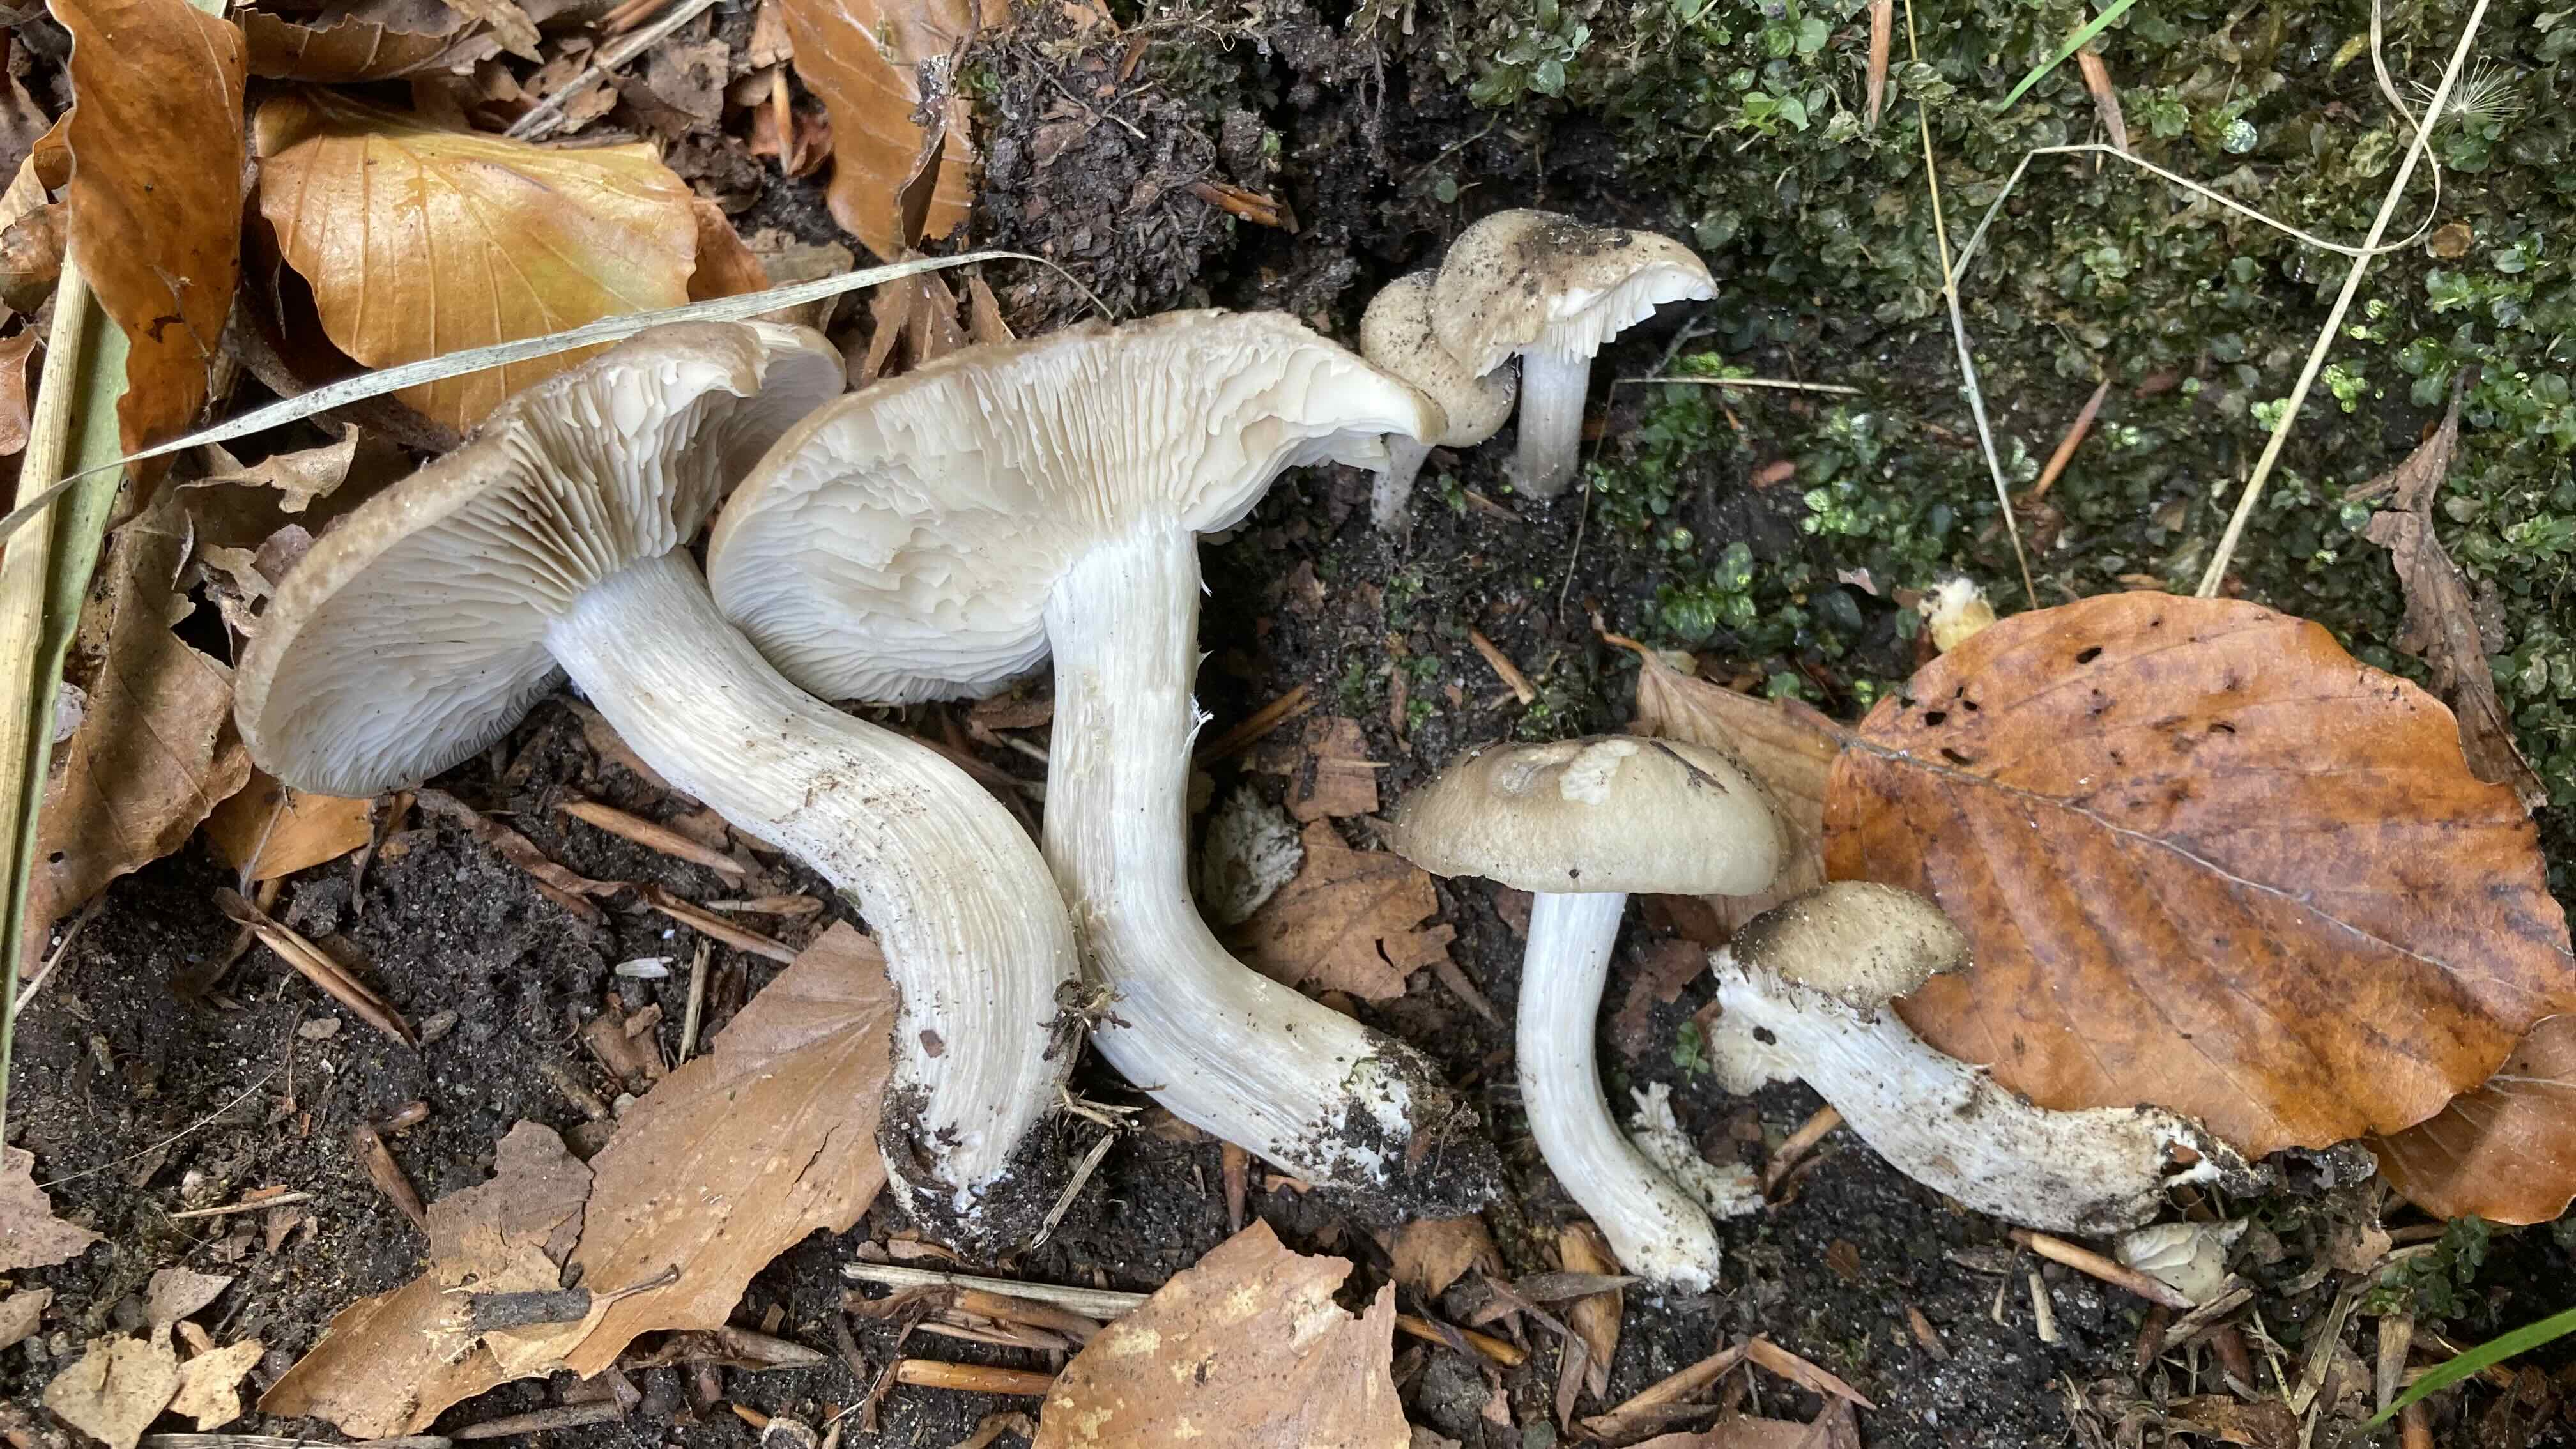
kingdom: Fungi
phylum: Basidiomycota
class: Agaricomycetes
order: Agaricales
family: Lyophyllaceae
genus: Lyophyllum
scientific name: Lyophyllum
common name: gråblad
